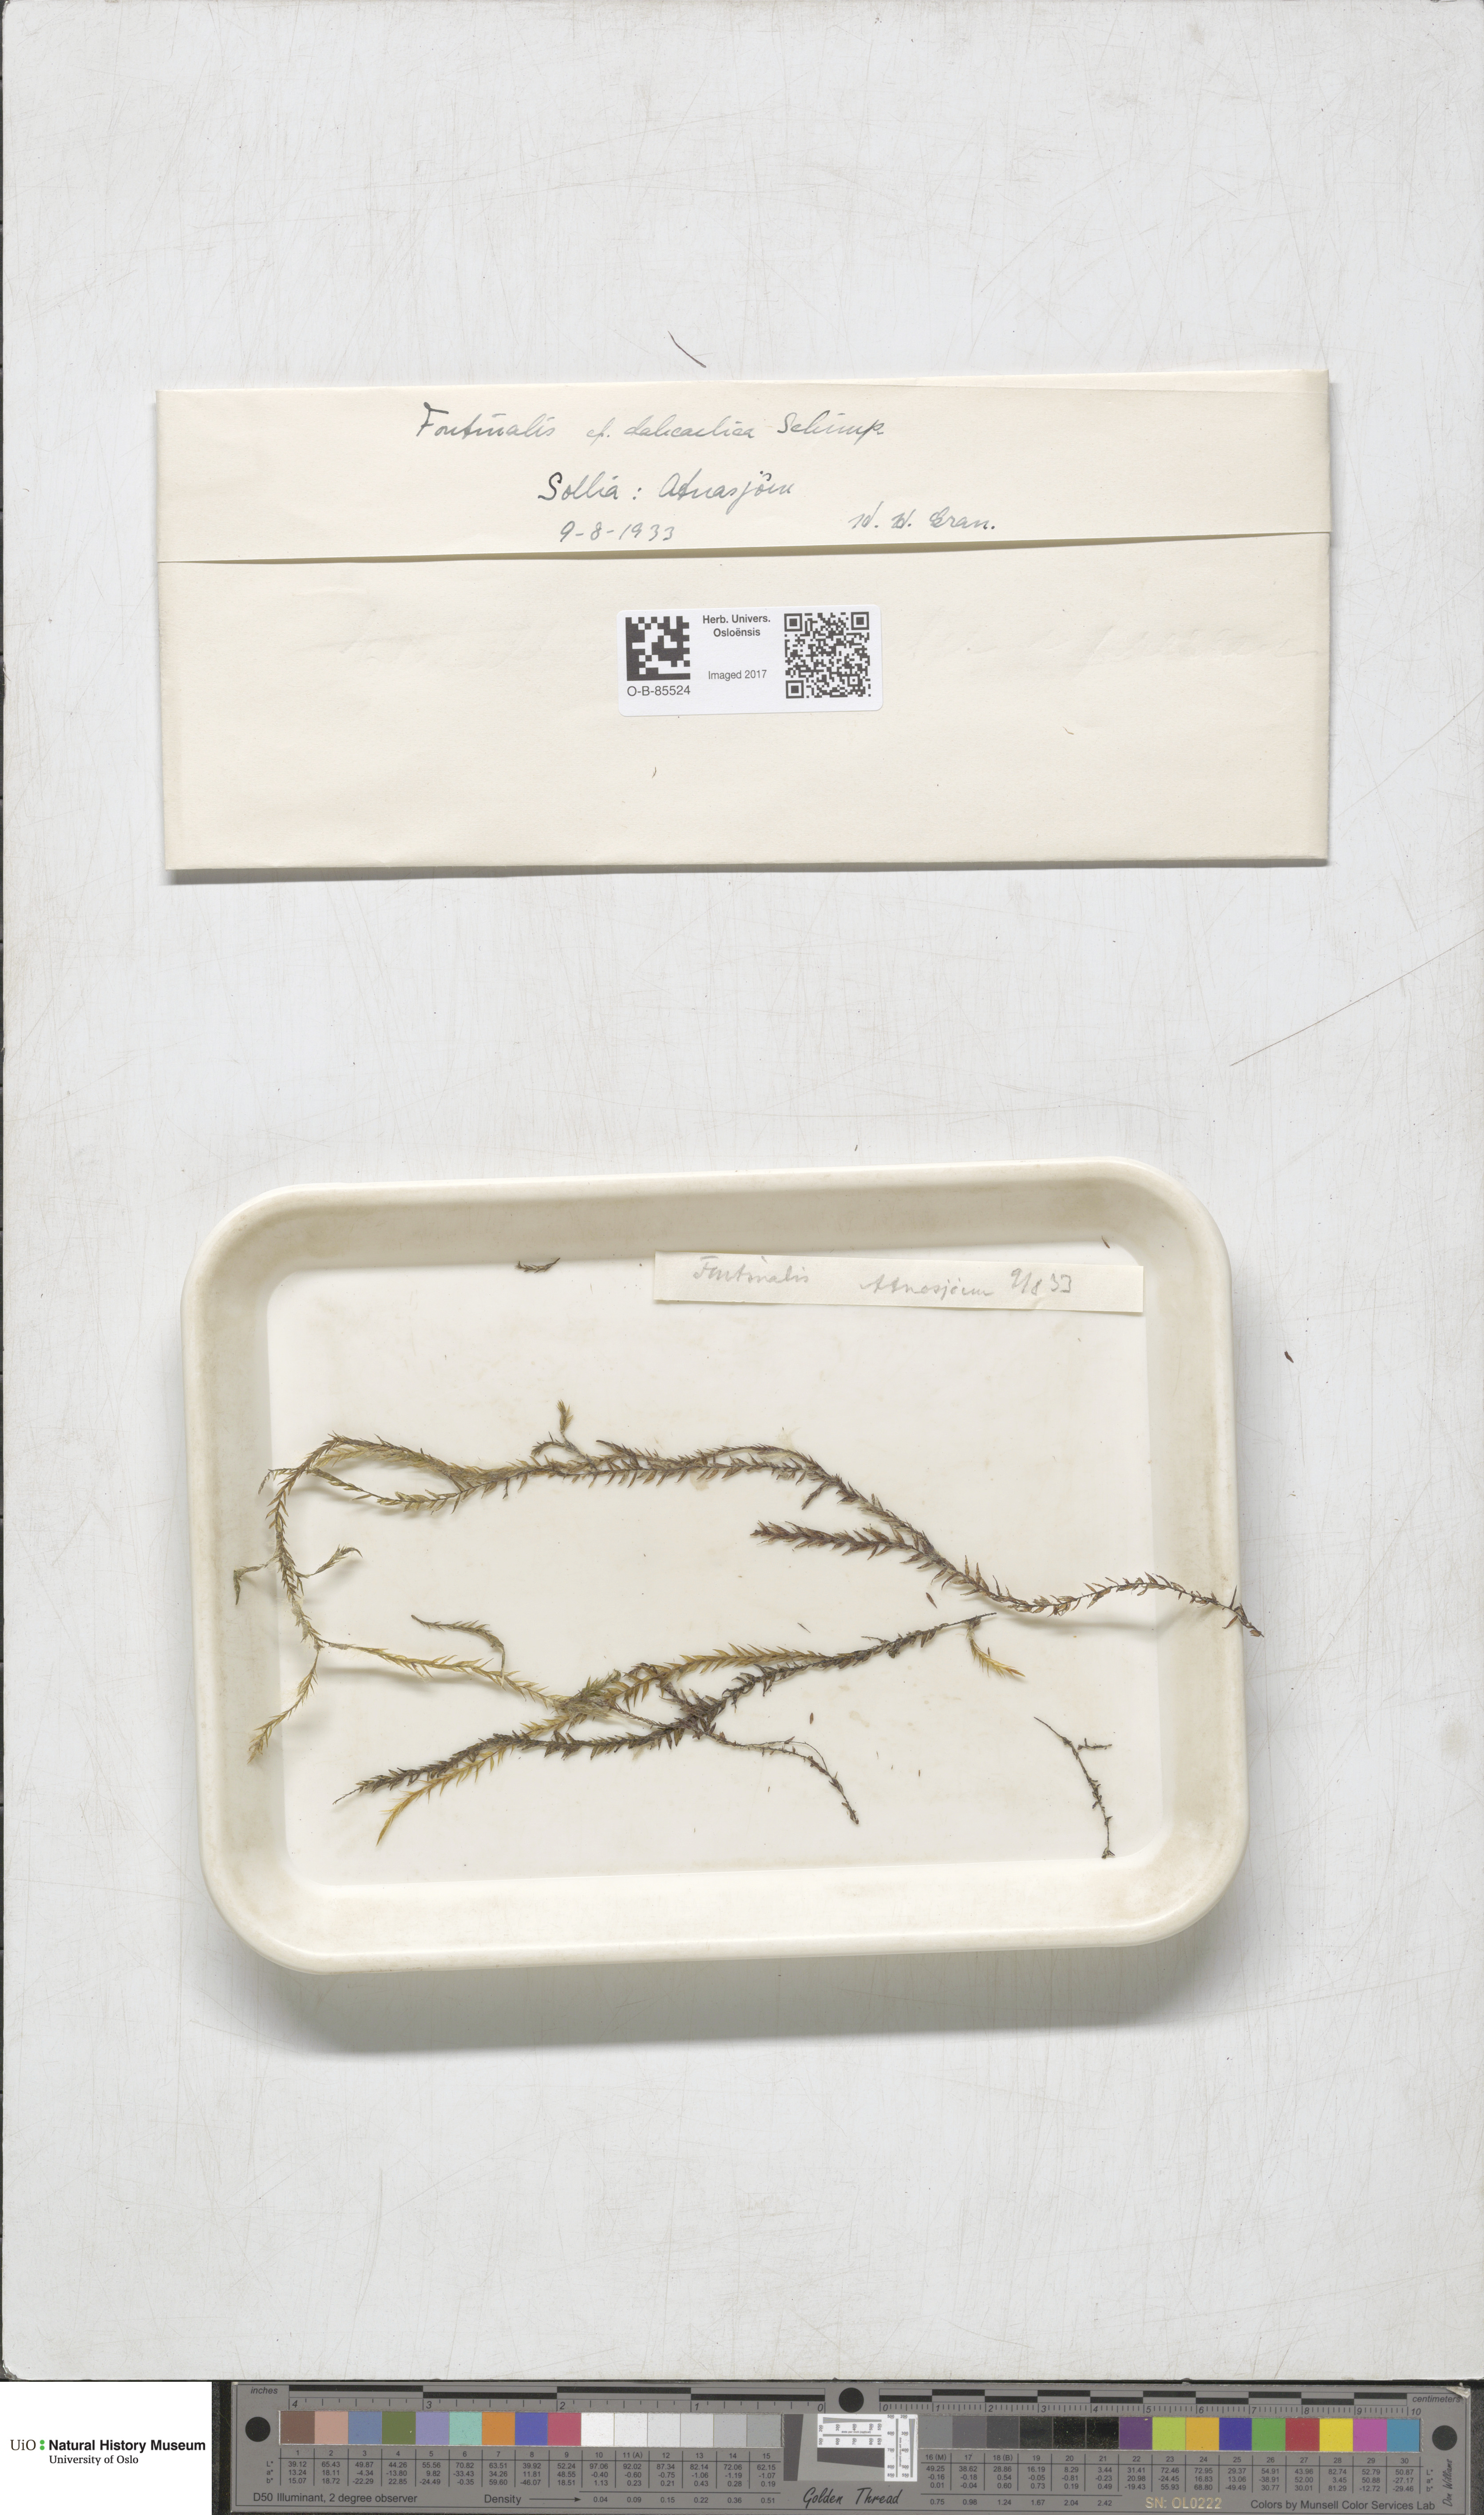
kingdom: Plantae
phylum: Bryophyta
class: Bryopsida
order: Hypnales
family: Fontinalaceae
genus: Fontinalis
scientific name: Fontinalis dalecarlica
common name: Slender water moss
